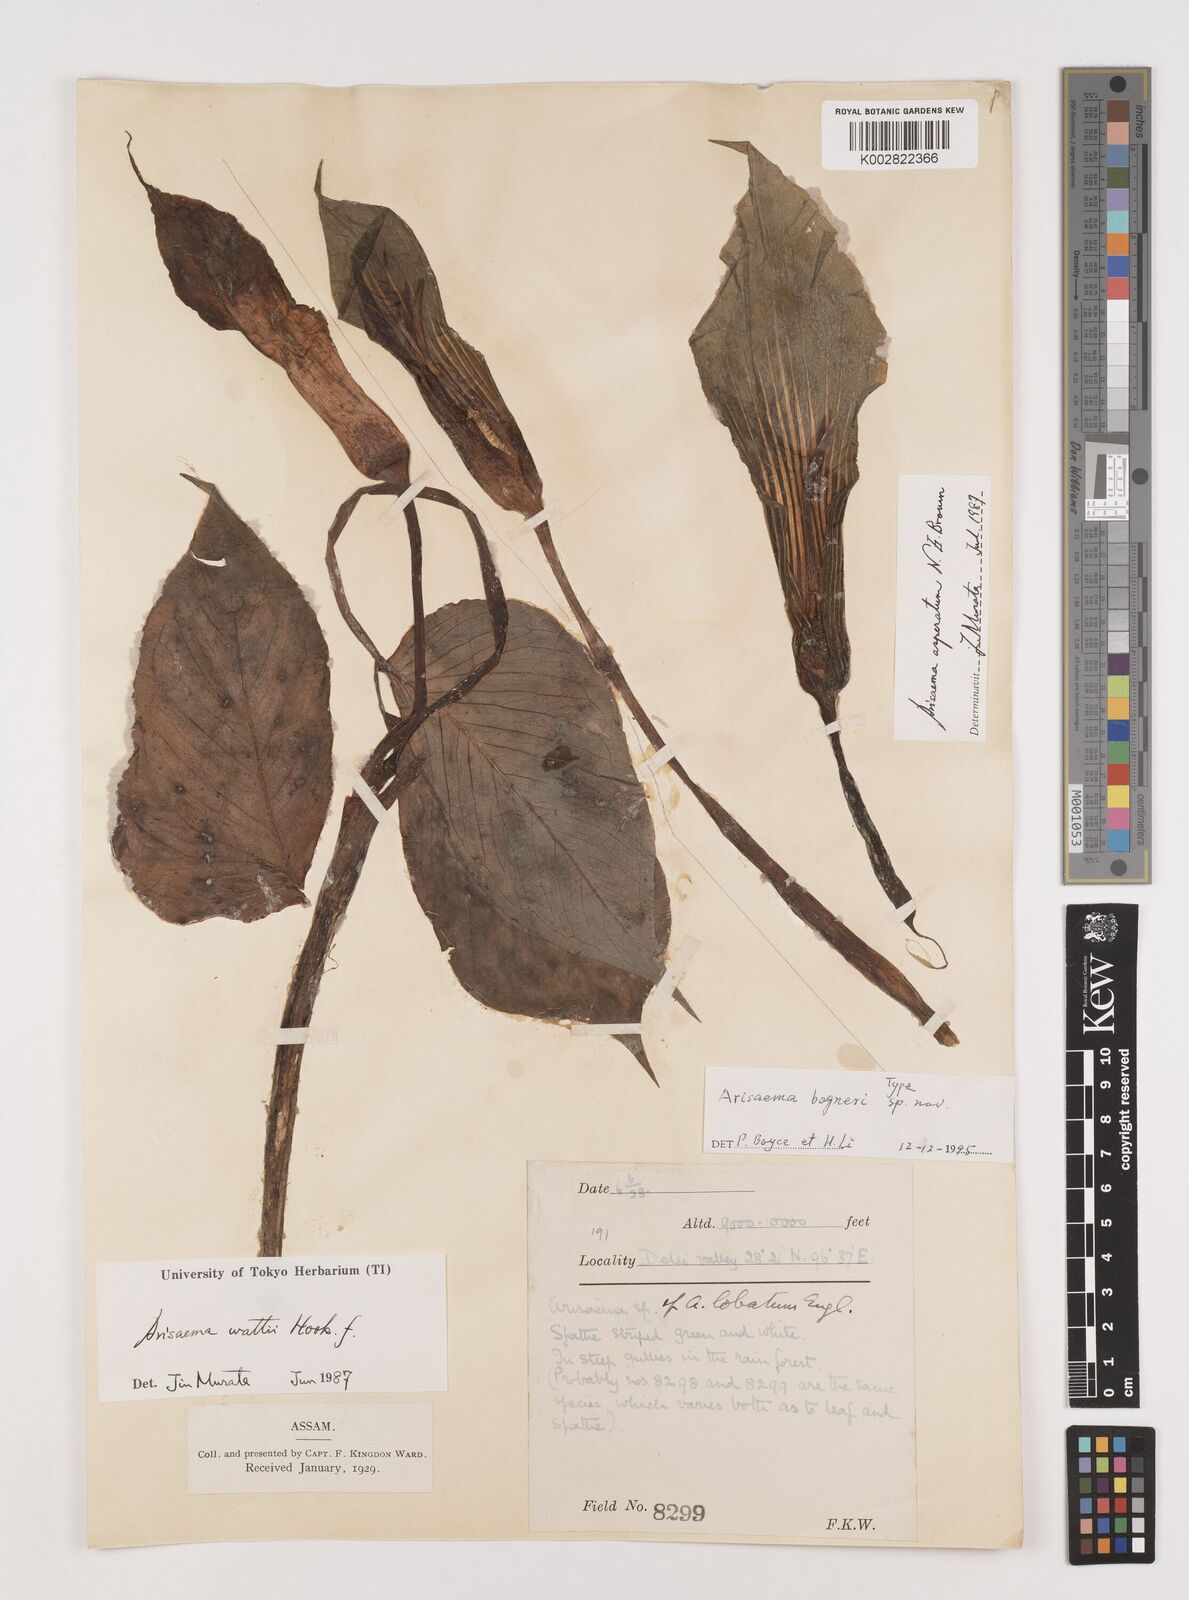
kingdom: Plantae
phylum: Tracheophyta
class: Liliopsida
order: Alismatales
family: Araceae
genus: Arisaema
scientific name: Arisaema bogneri
